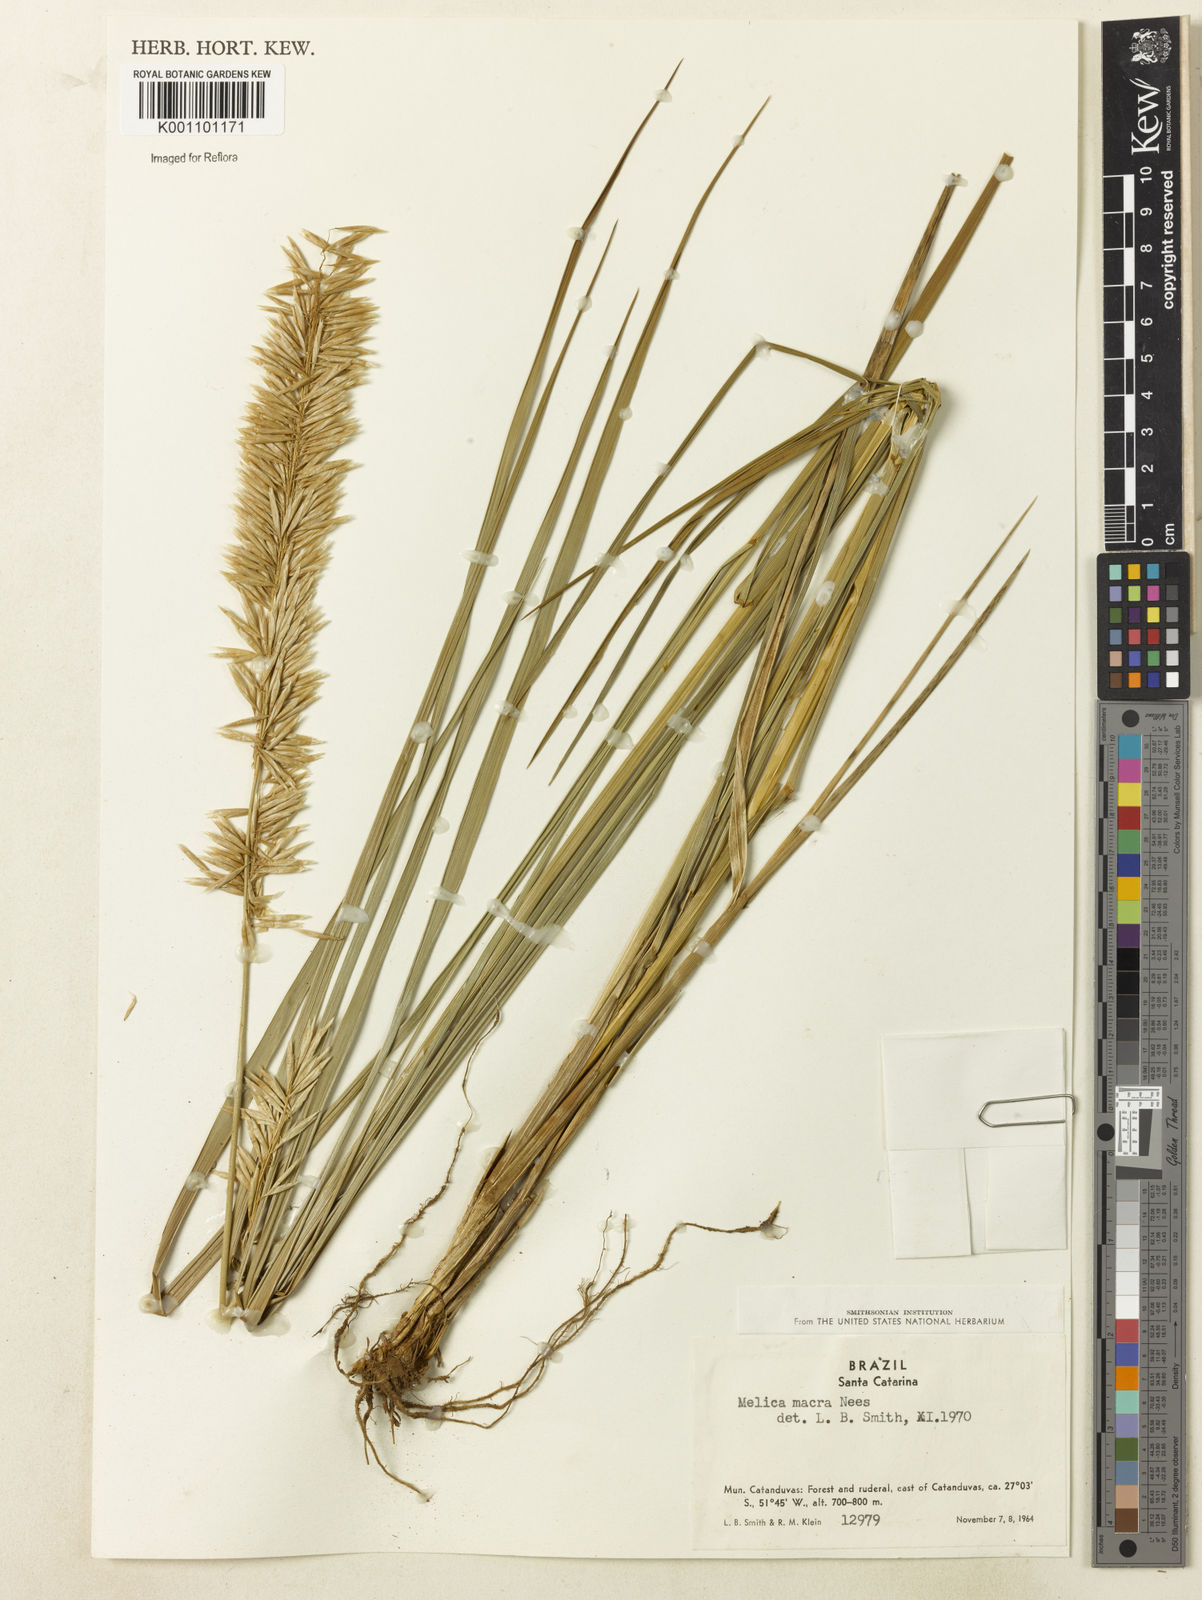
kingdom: Plantae
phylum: Tracheophyta
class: Liliopsida
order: Poales
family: Poaceae
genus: Melica
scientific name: Melica macra
